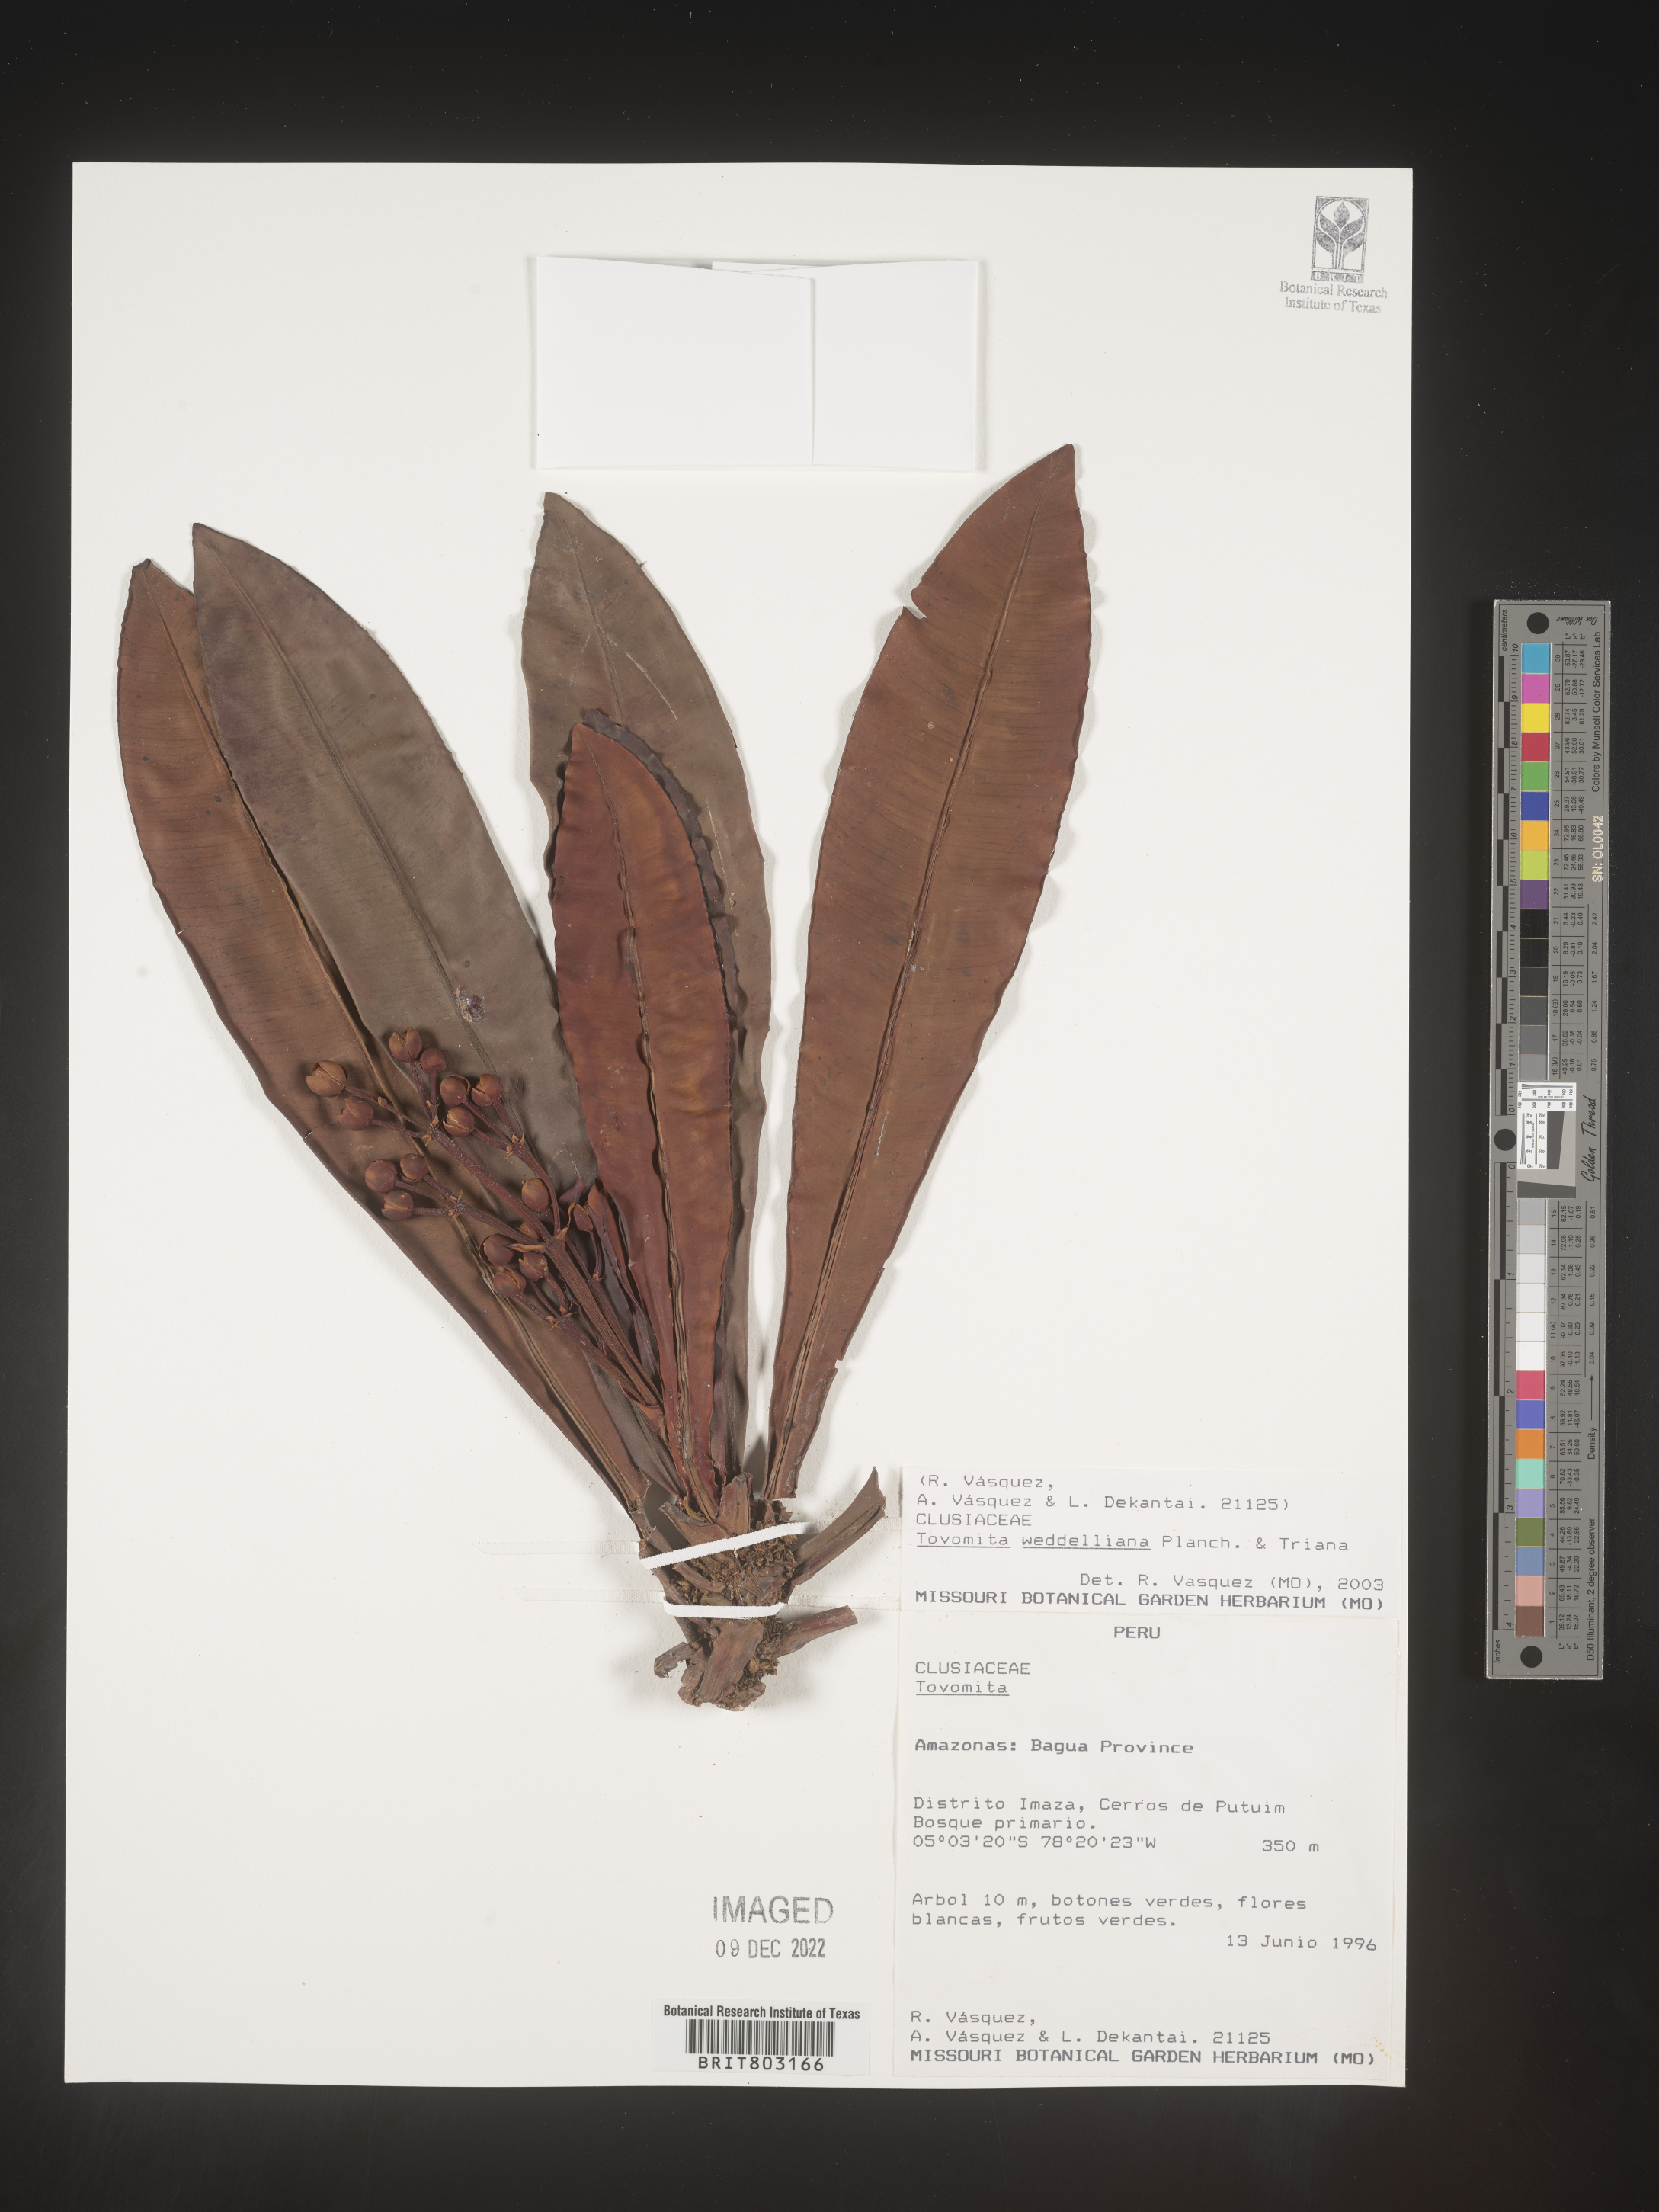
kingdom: Plantae
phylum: Tracheophyta
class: Magnoliopsida
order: Malpighiales
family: Clusiaceae
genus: Arawakia
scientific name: Arawakia weddelliana
